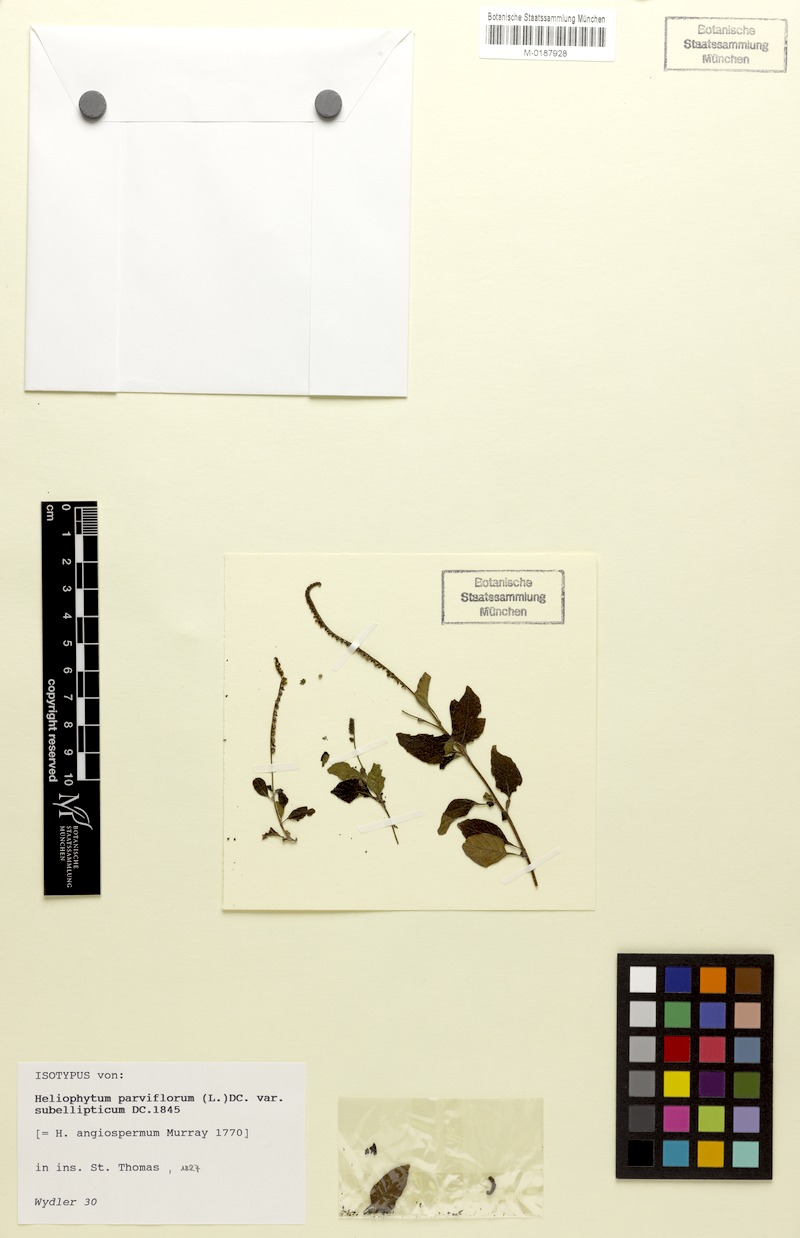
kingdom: Plantae
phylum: Tracheophyta
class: Magnoliopsida
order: Boraginales
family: Heliotropiaceae
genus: Heliotropium
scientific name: Heliotropium angiospermum
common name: Eye bright
